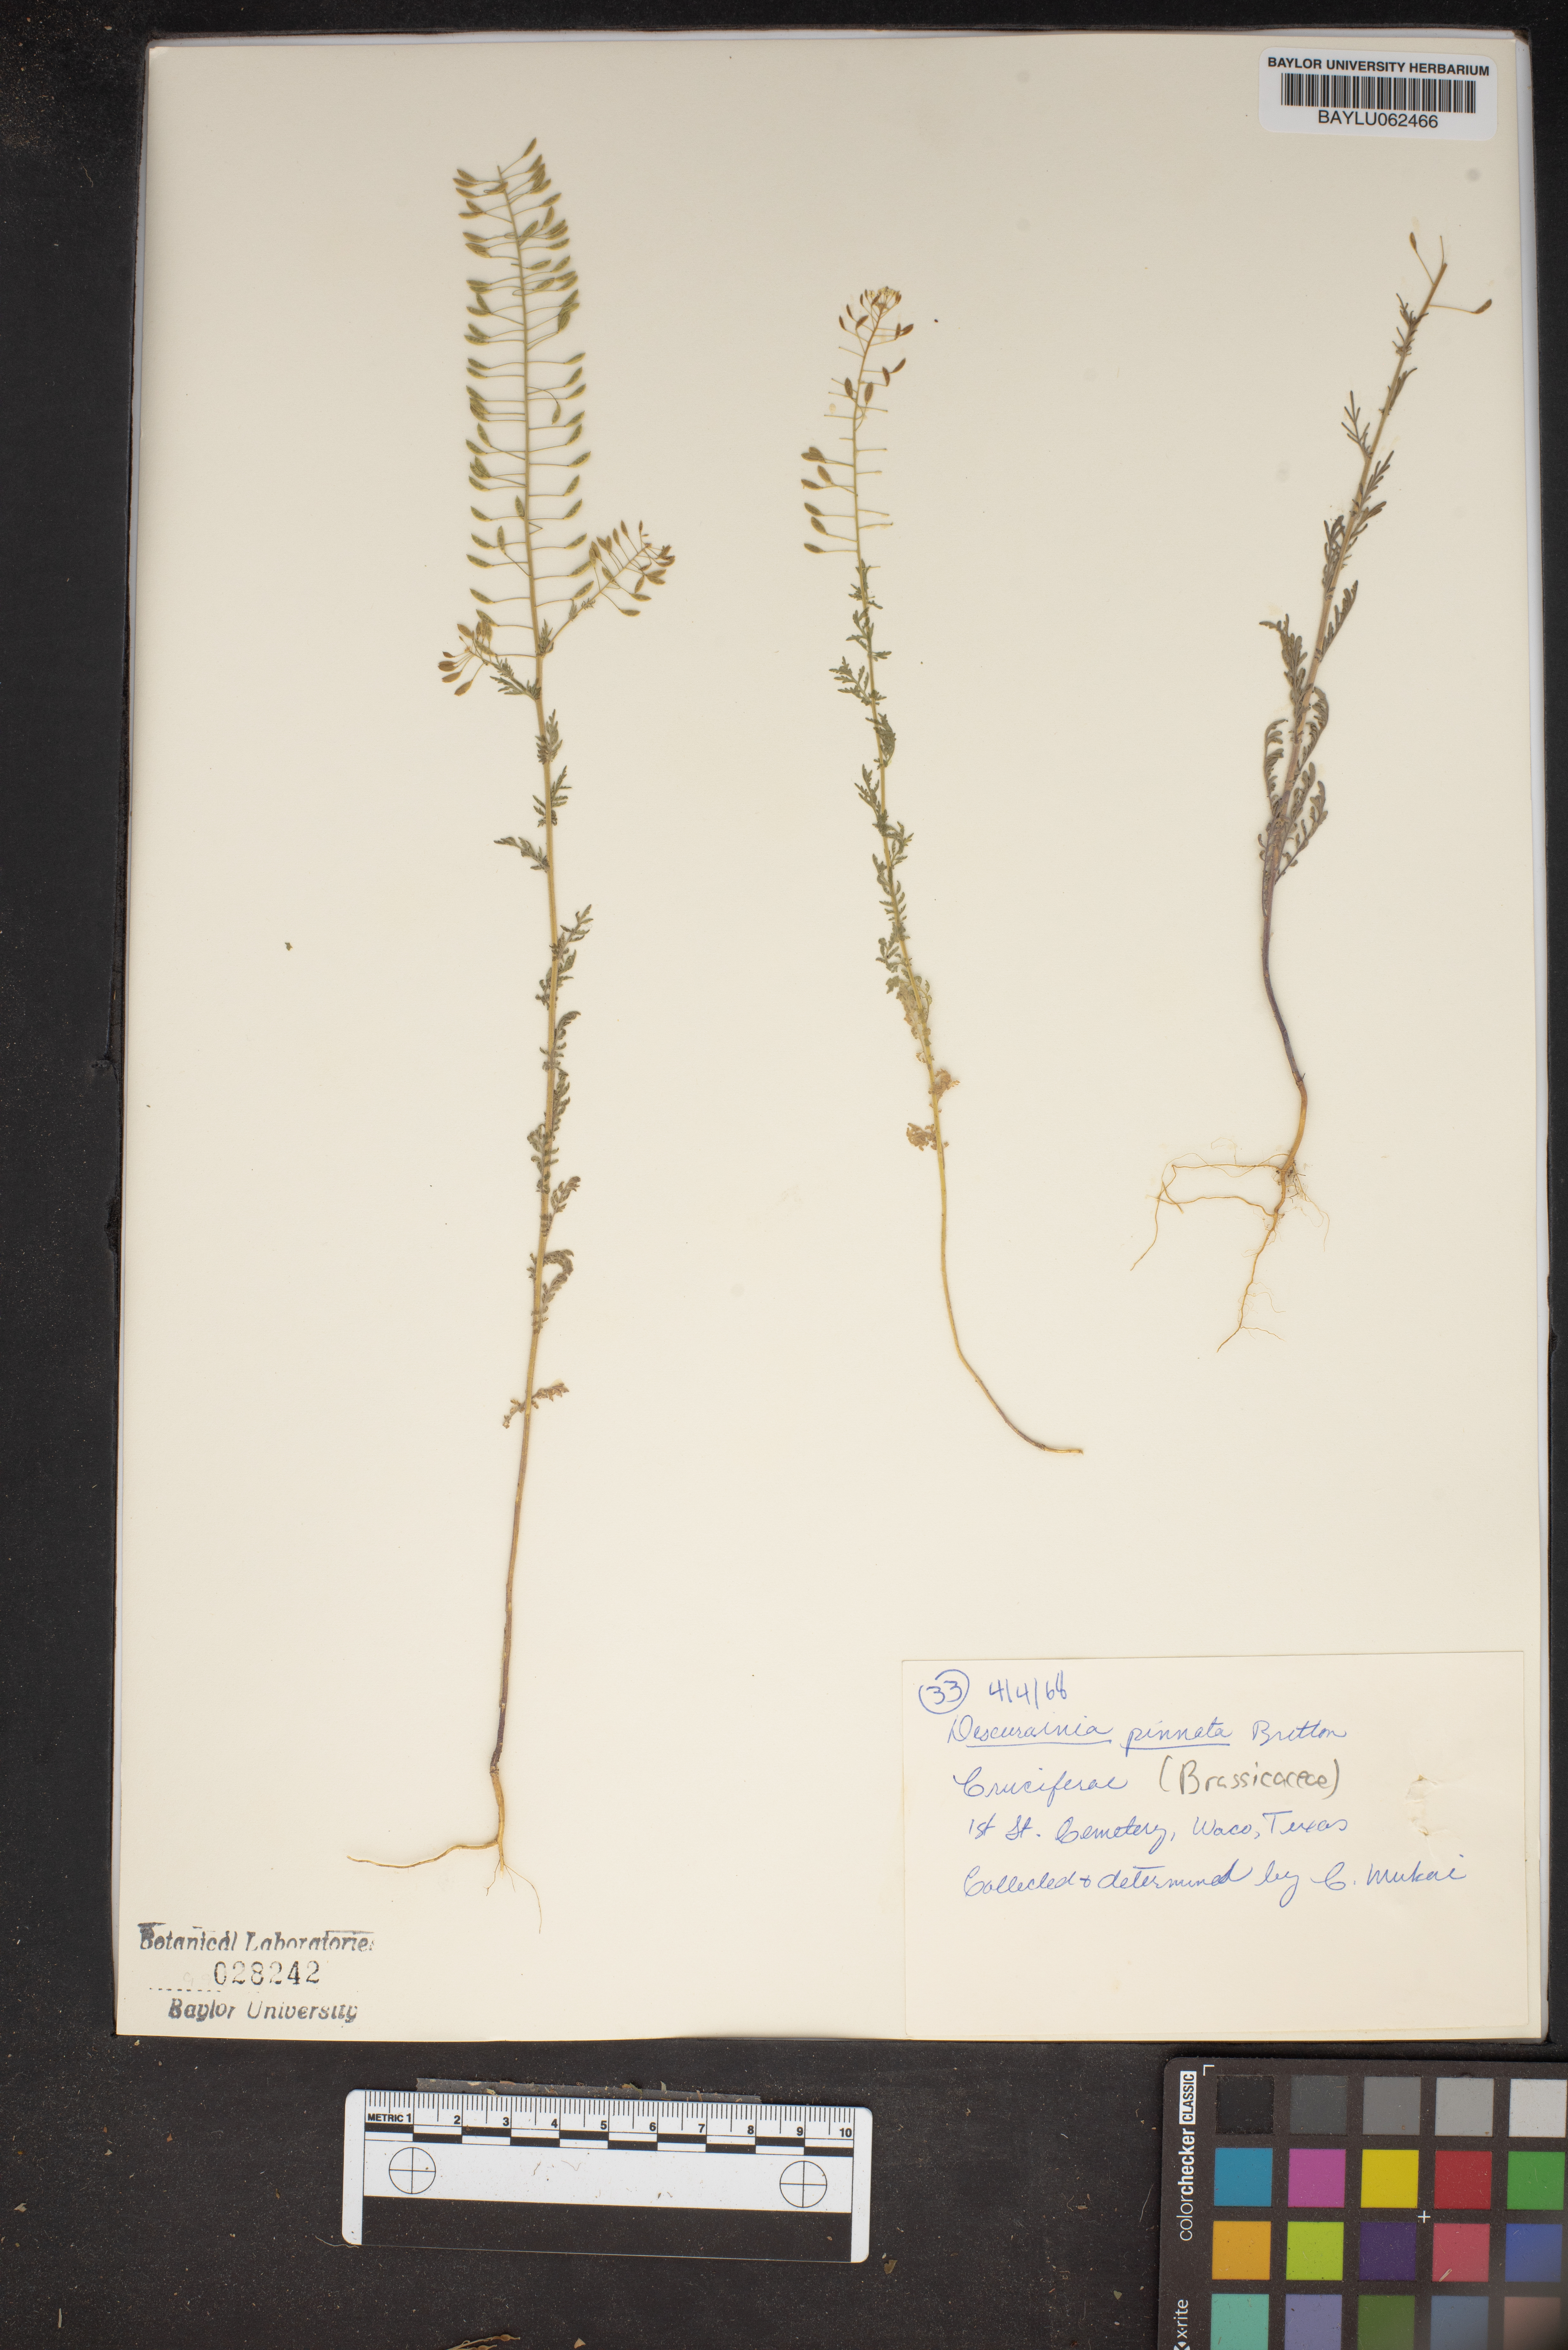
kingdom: Plantae
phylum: Tracheophyta
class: Magnoliopsida
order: Brassicales
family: Brassicaceae
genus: Descurainia
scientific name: Descurainia pinnata
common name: Western tansy mustard
